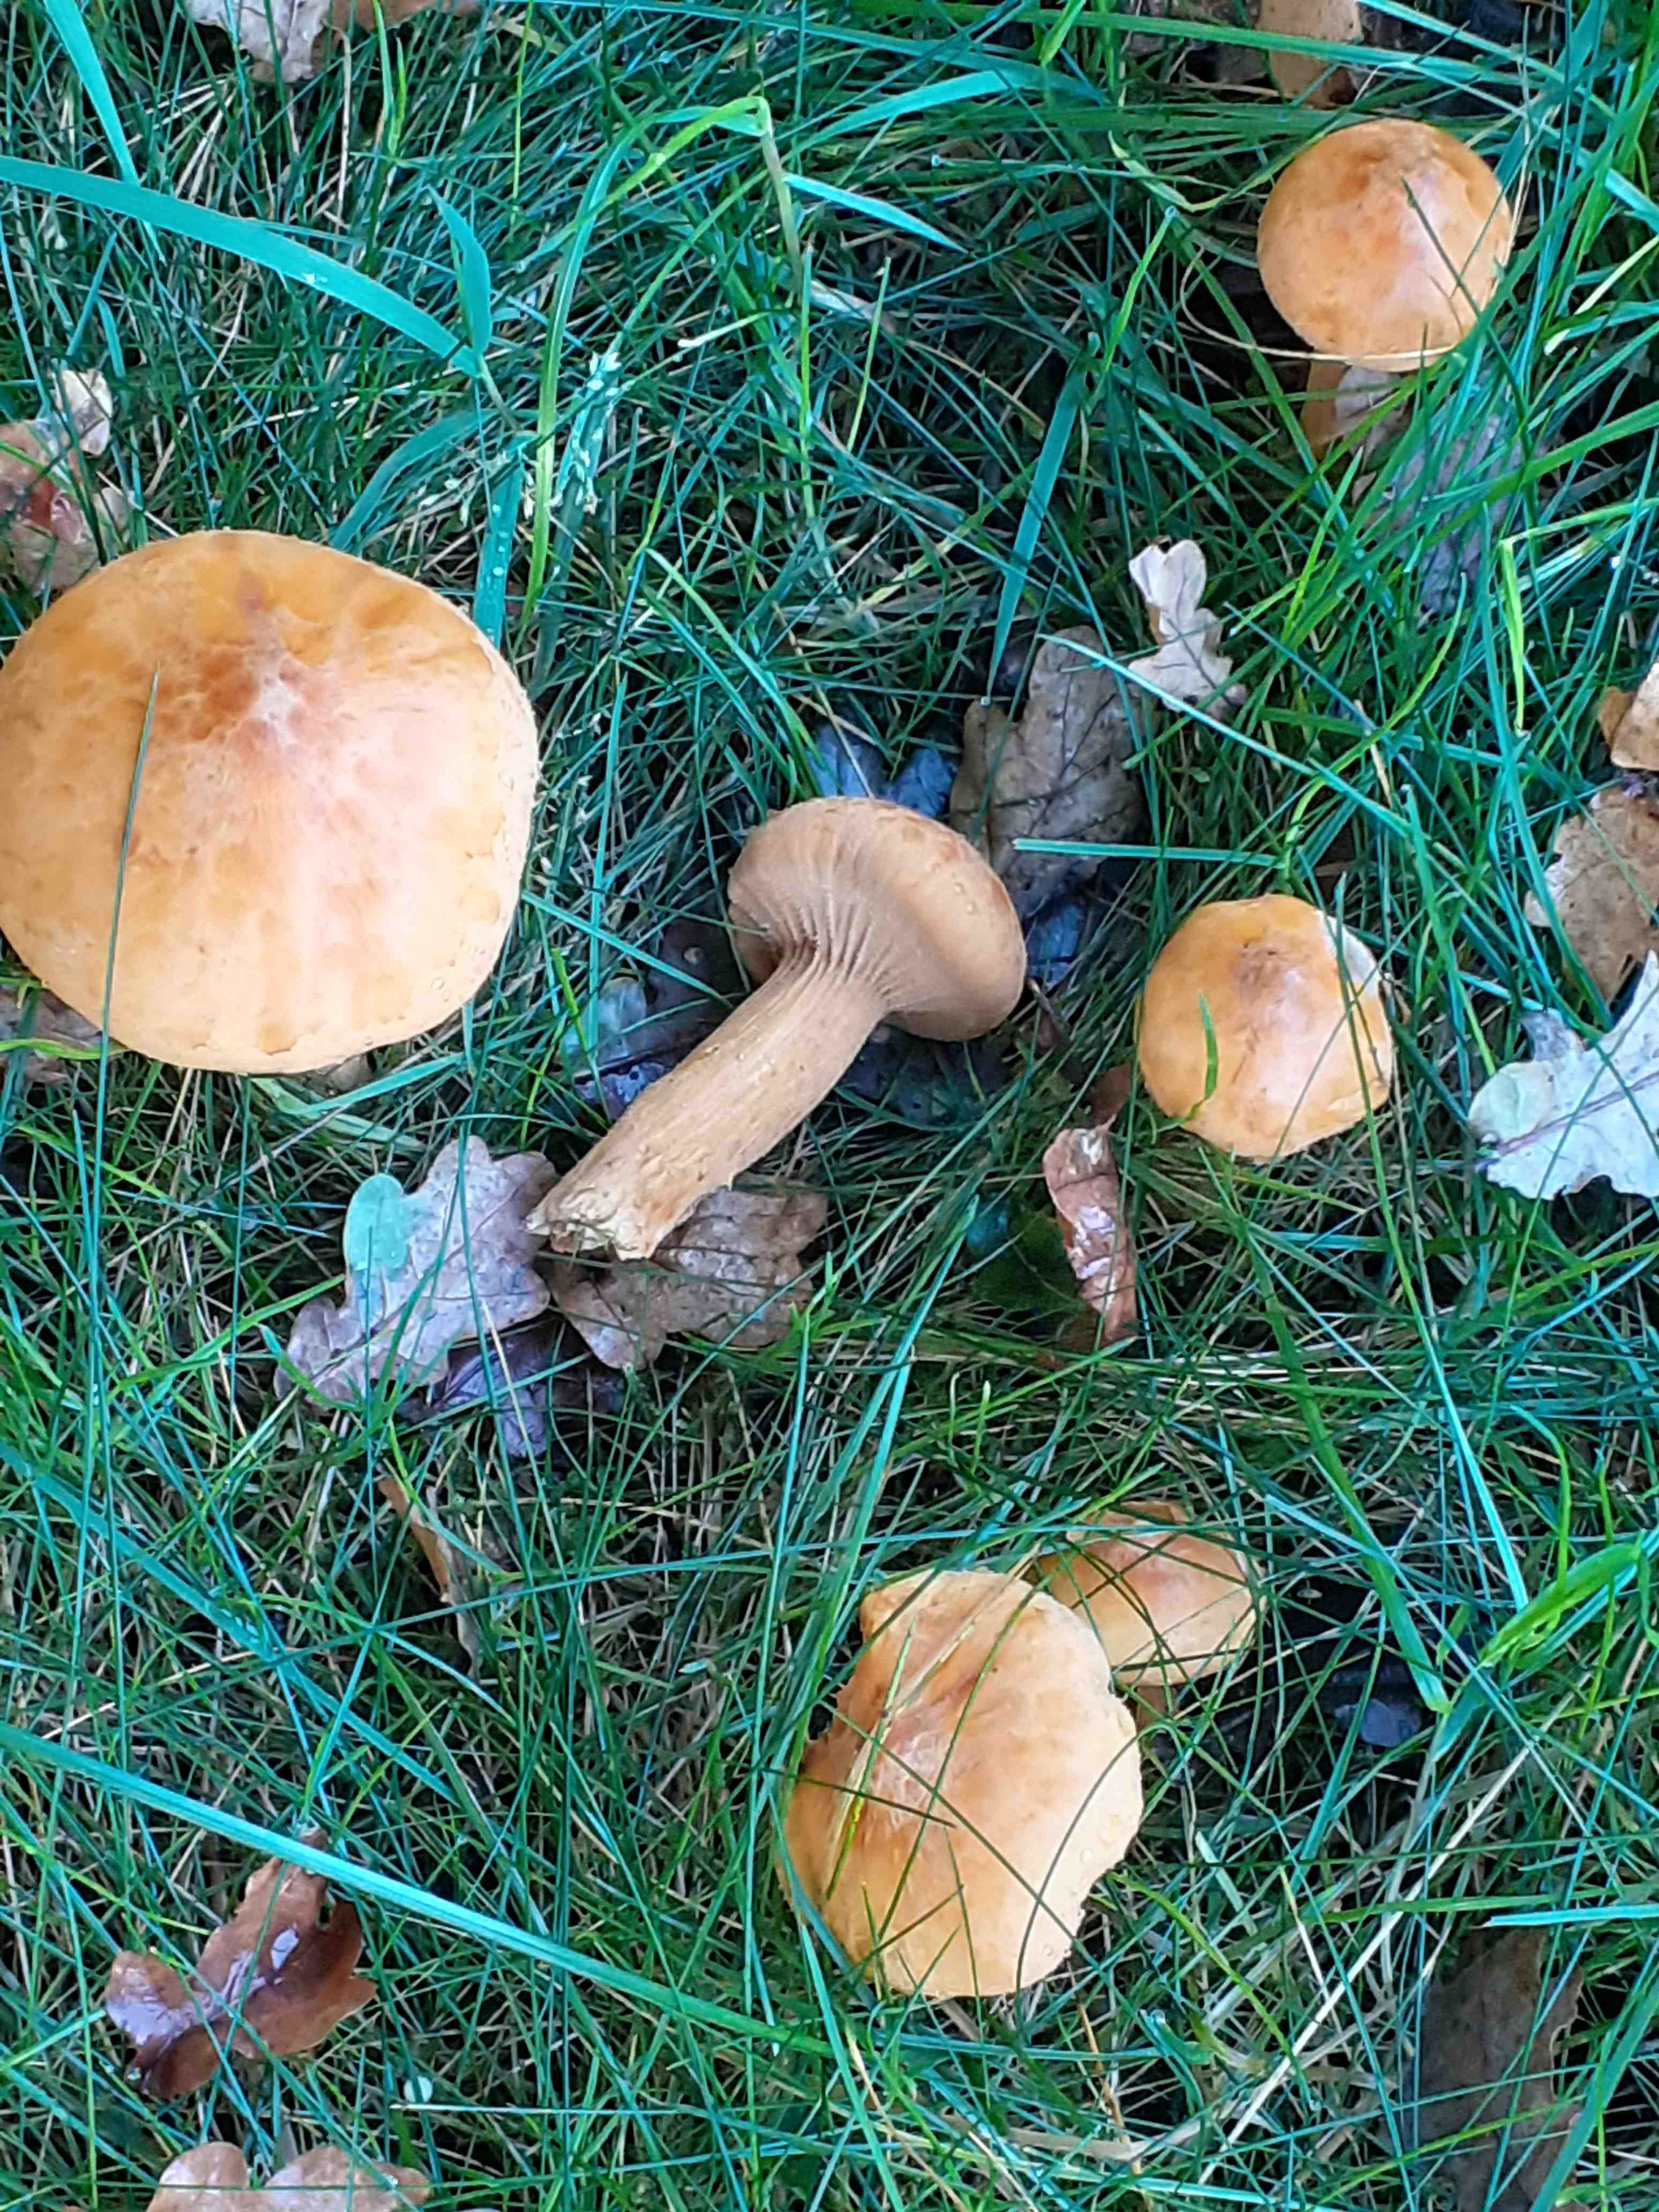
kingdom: Fungi
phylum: Basidiomycota
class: Agaricomycetes
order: Agaricales
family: Tricholomataceae
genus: Phaeolepiota
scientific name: Phaeolepiota aurea
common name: gyldenhat
